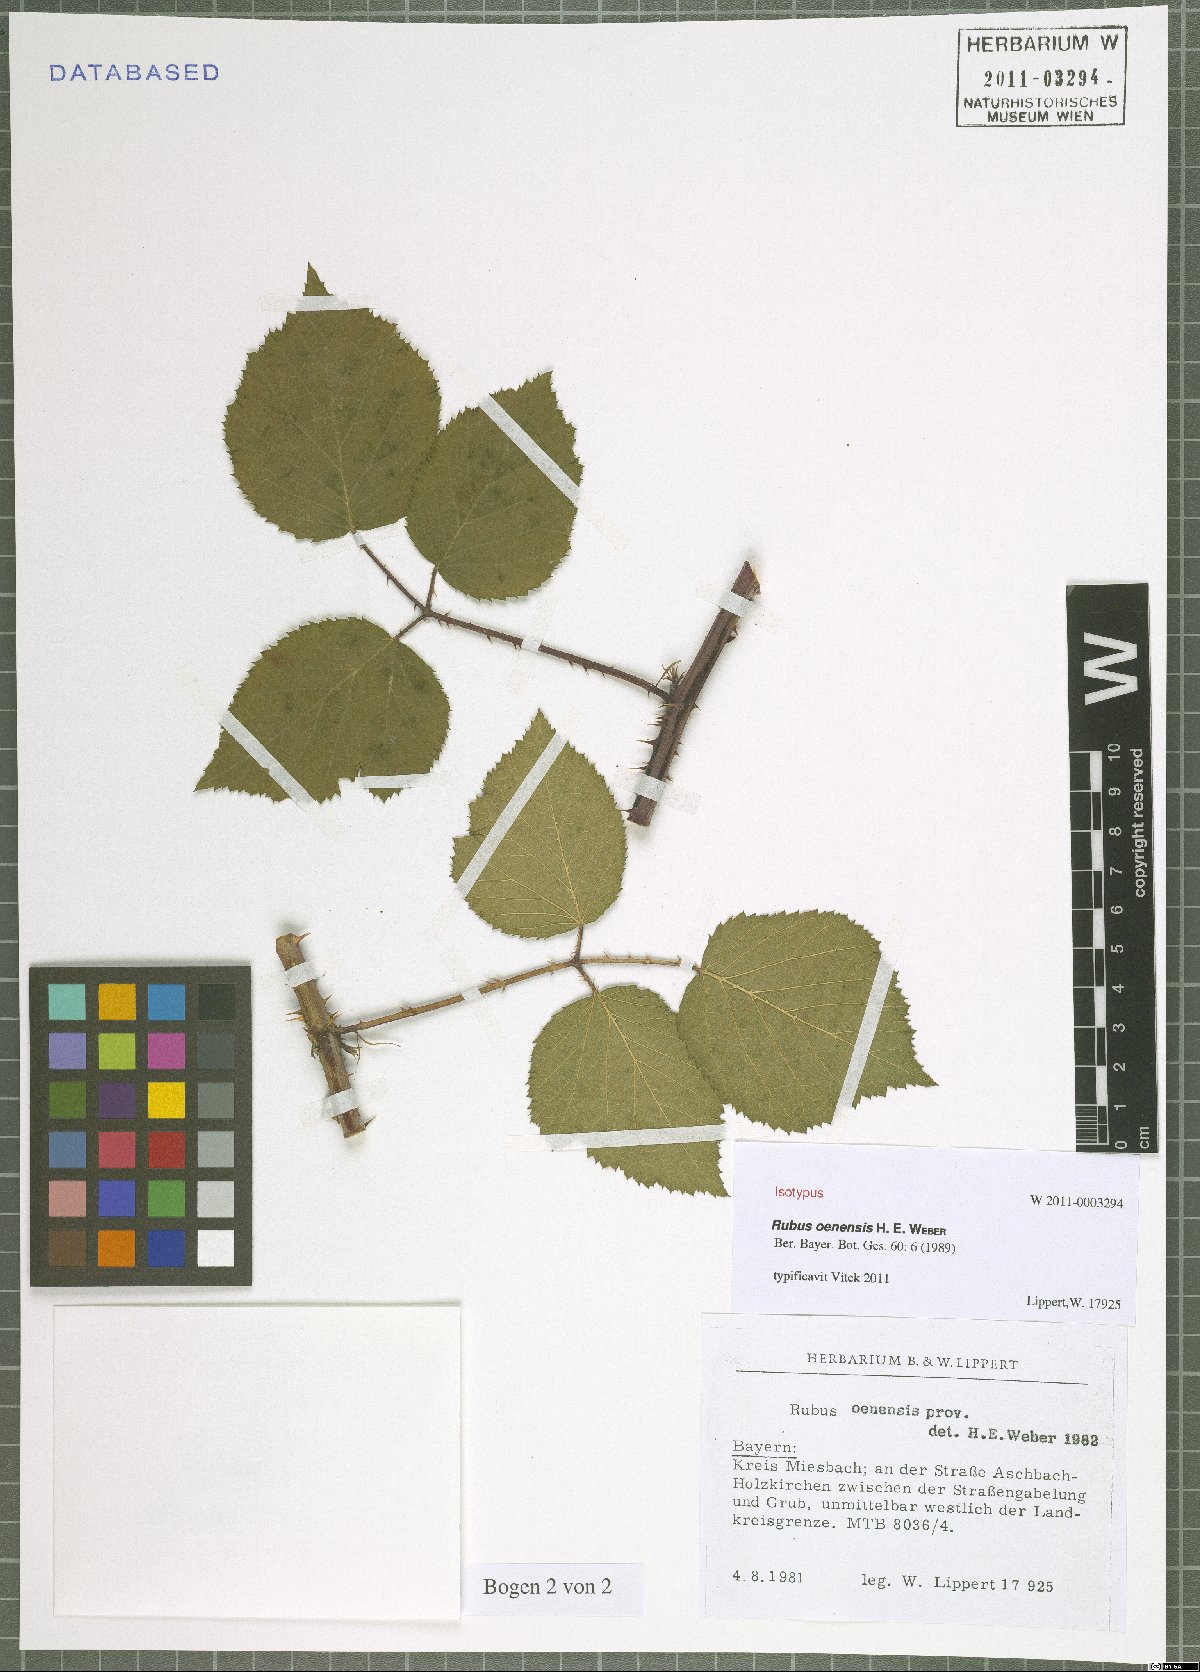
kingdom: Plantae
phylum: Tracheophyta
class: Magnoliopsida
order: Rosales
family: Rosaceae
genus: Rubus
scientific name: Rubus oenensis
